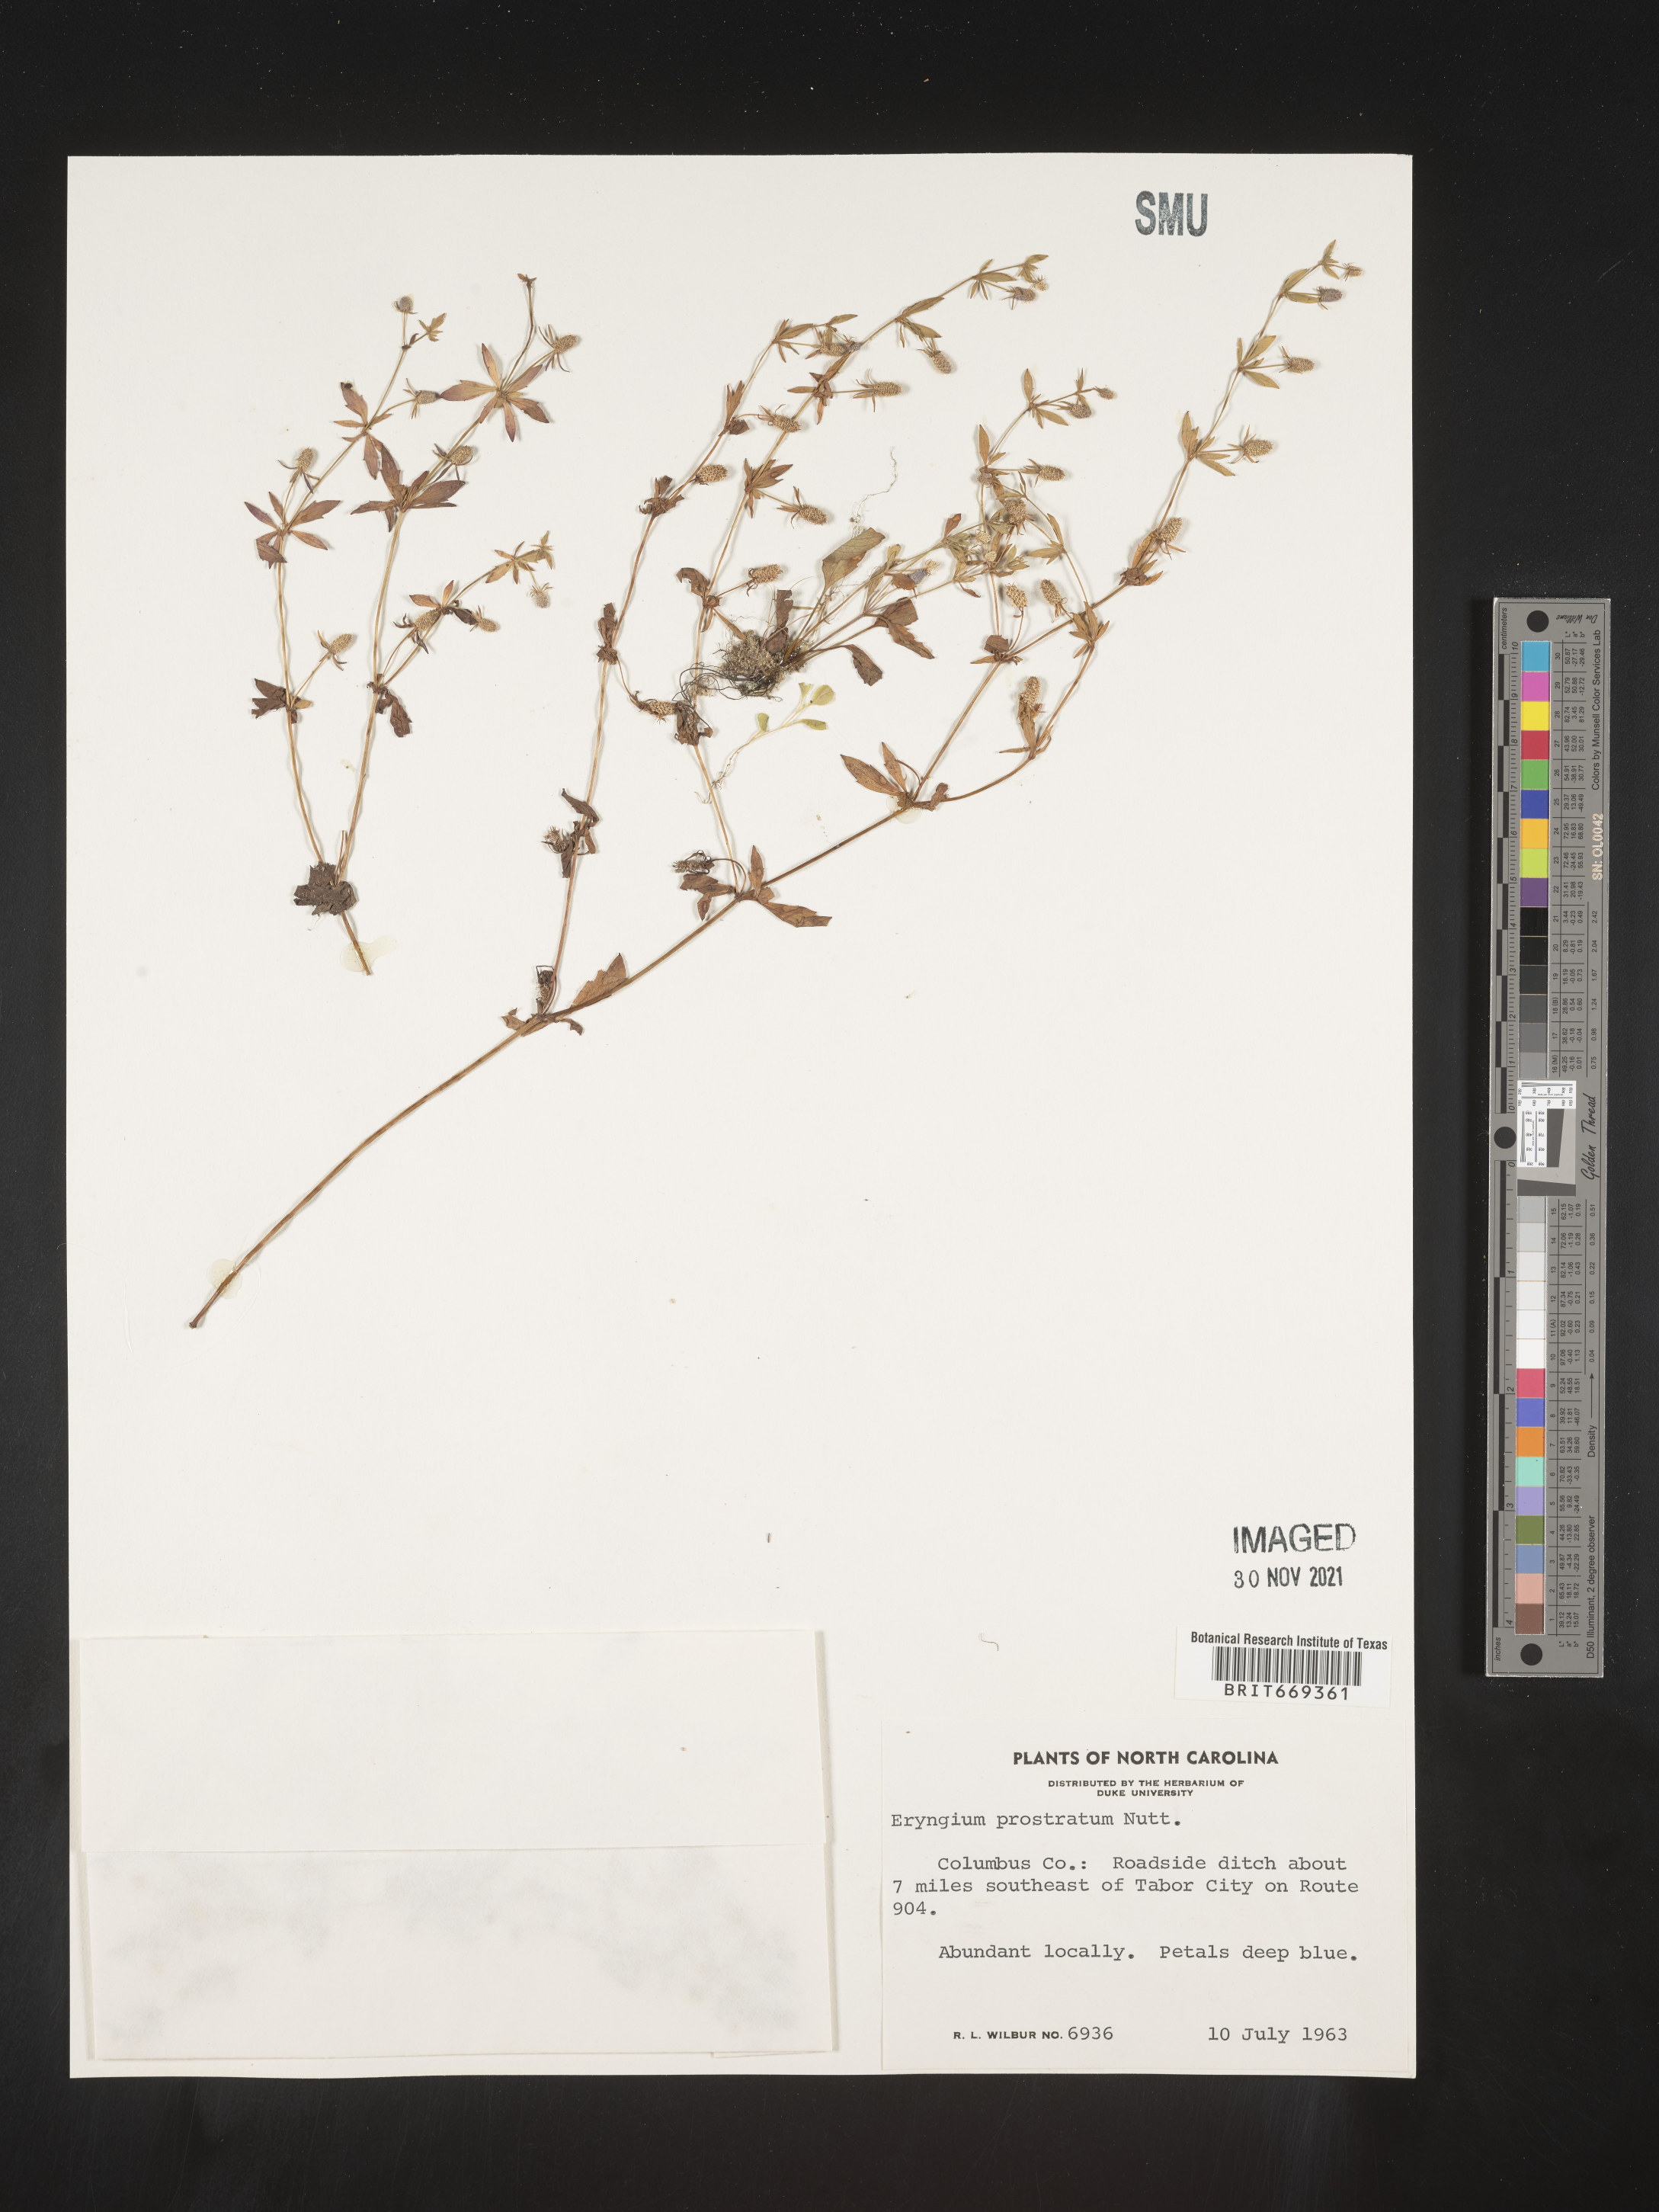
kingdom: Plantae
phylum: Tracheophyta
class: Magnoliopsida
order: Apiales
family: Apiaceae
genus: Eryngium
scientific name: Eryngium prostratum
